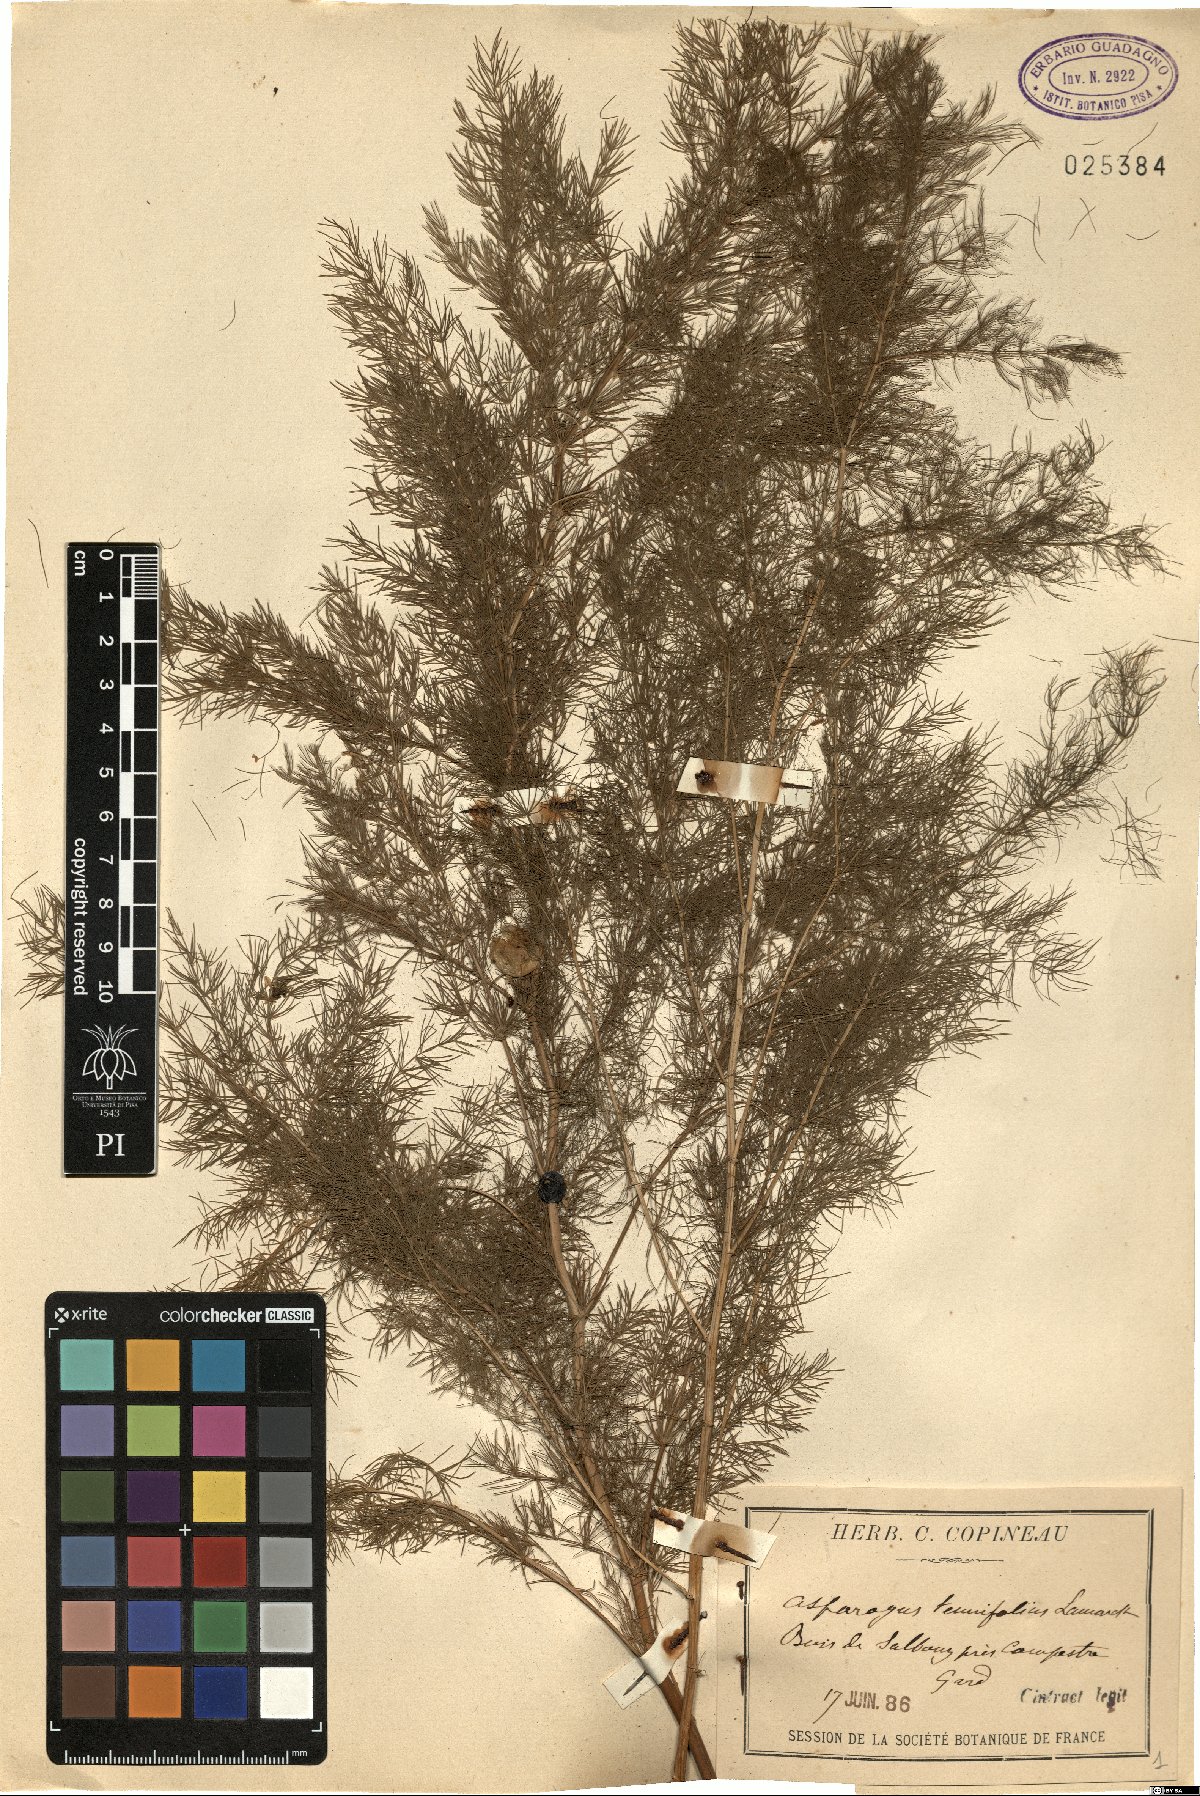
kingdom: Plantae
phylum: Tracheophyta
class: Liliopsida
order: Asparagales
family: Asparagaceae
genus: Asparagus
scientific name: Asparagus tenuifolius
